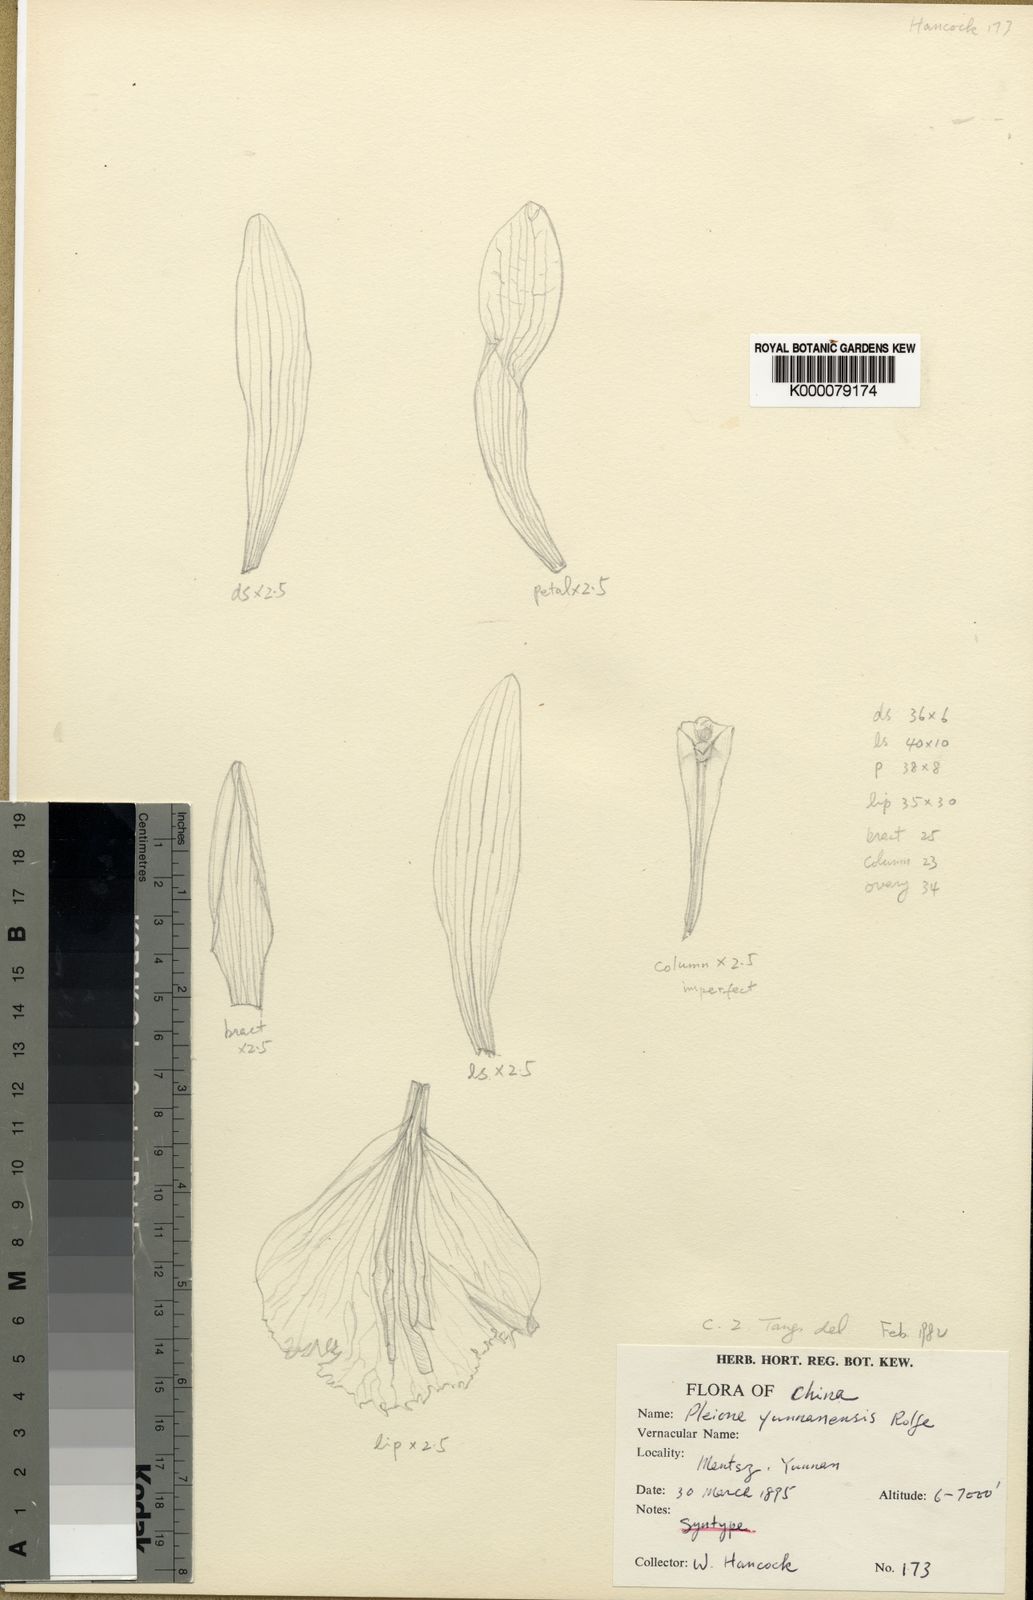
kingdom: Plantae
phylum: Tracheophyta
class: Liliopsida
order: Asparagales
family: Orchidaceae
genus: Pleione
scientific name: Pleione yunnanensis
